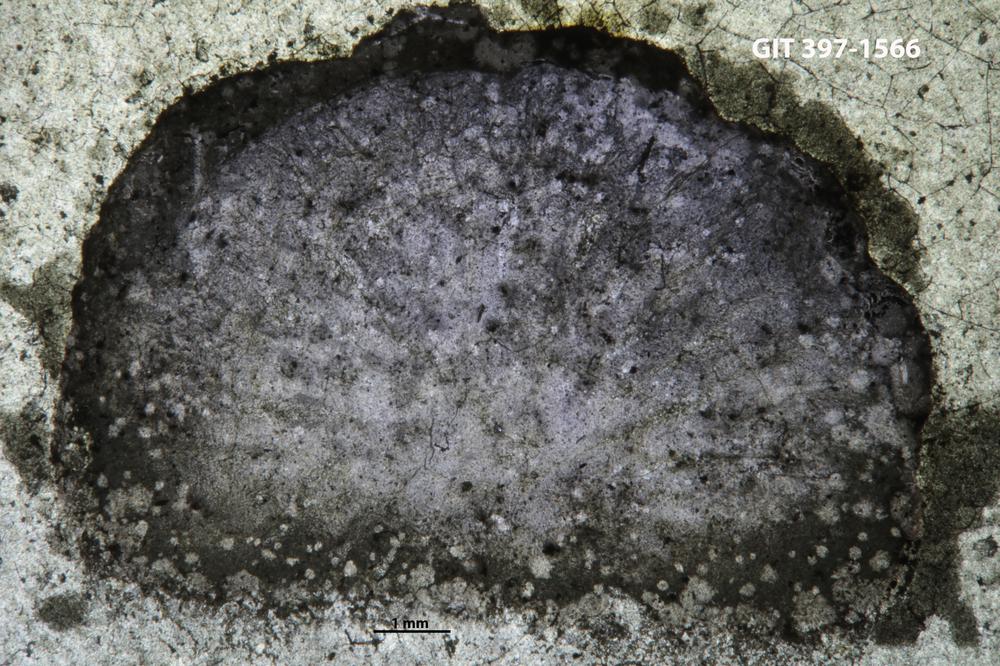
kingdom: Animalia
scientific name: Animalia
